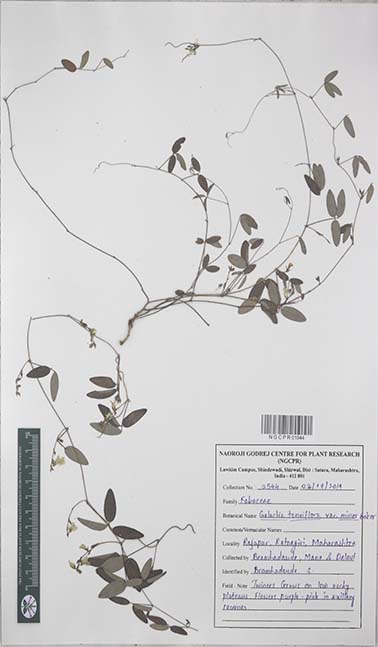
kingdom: Plantae
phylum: Tracheophyta
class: Magnoliopsida
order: Fabales
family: Fabaceae
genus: Galactia
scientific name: Galactia striata
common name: Florida hammock milkpea
